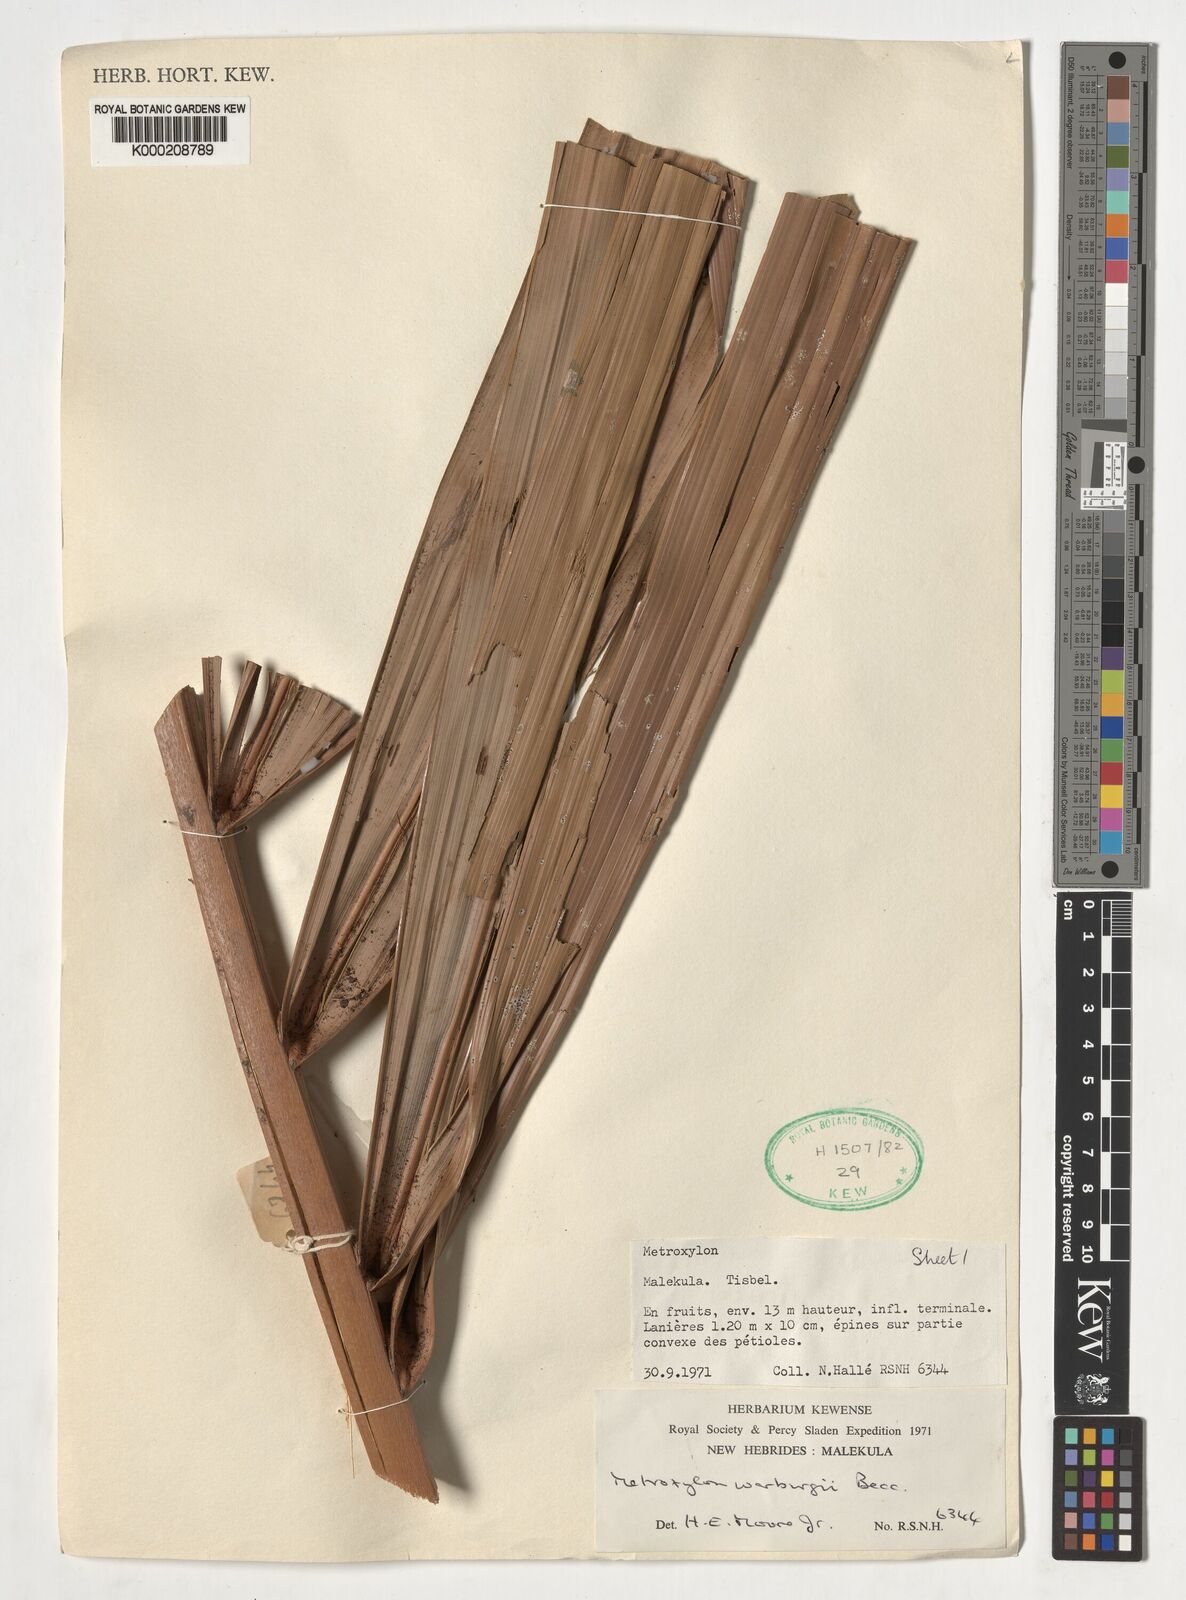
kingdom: Plantae
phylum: Tracheophyta
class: Liliopsida
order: Arecales
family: Arecaceae
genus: Metroxylon
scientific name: Metroxylon warburgii
